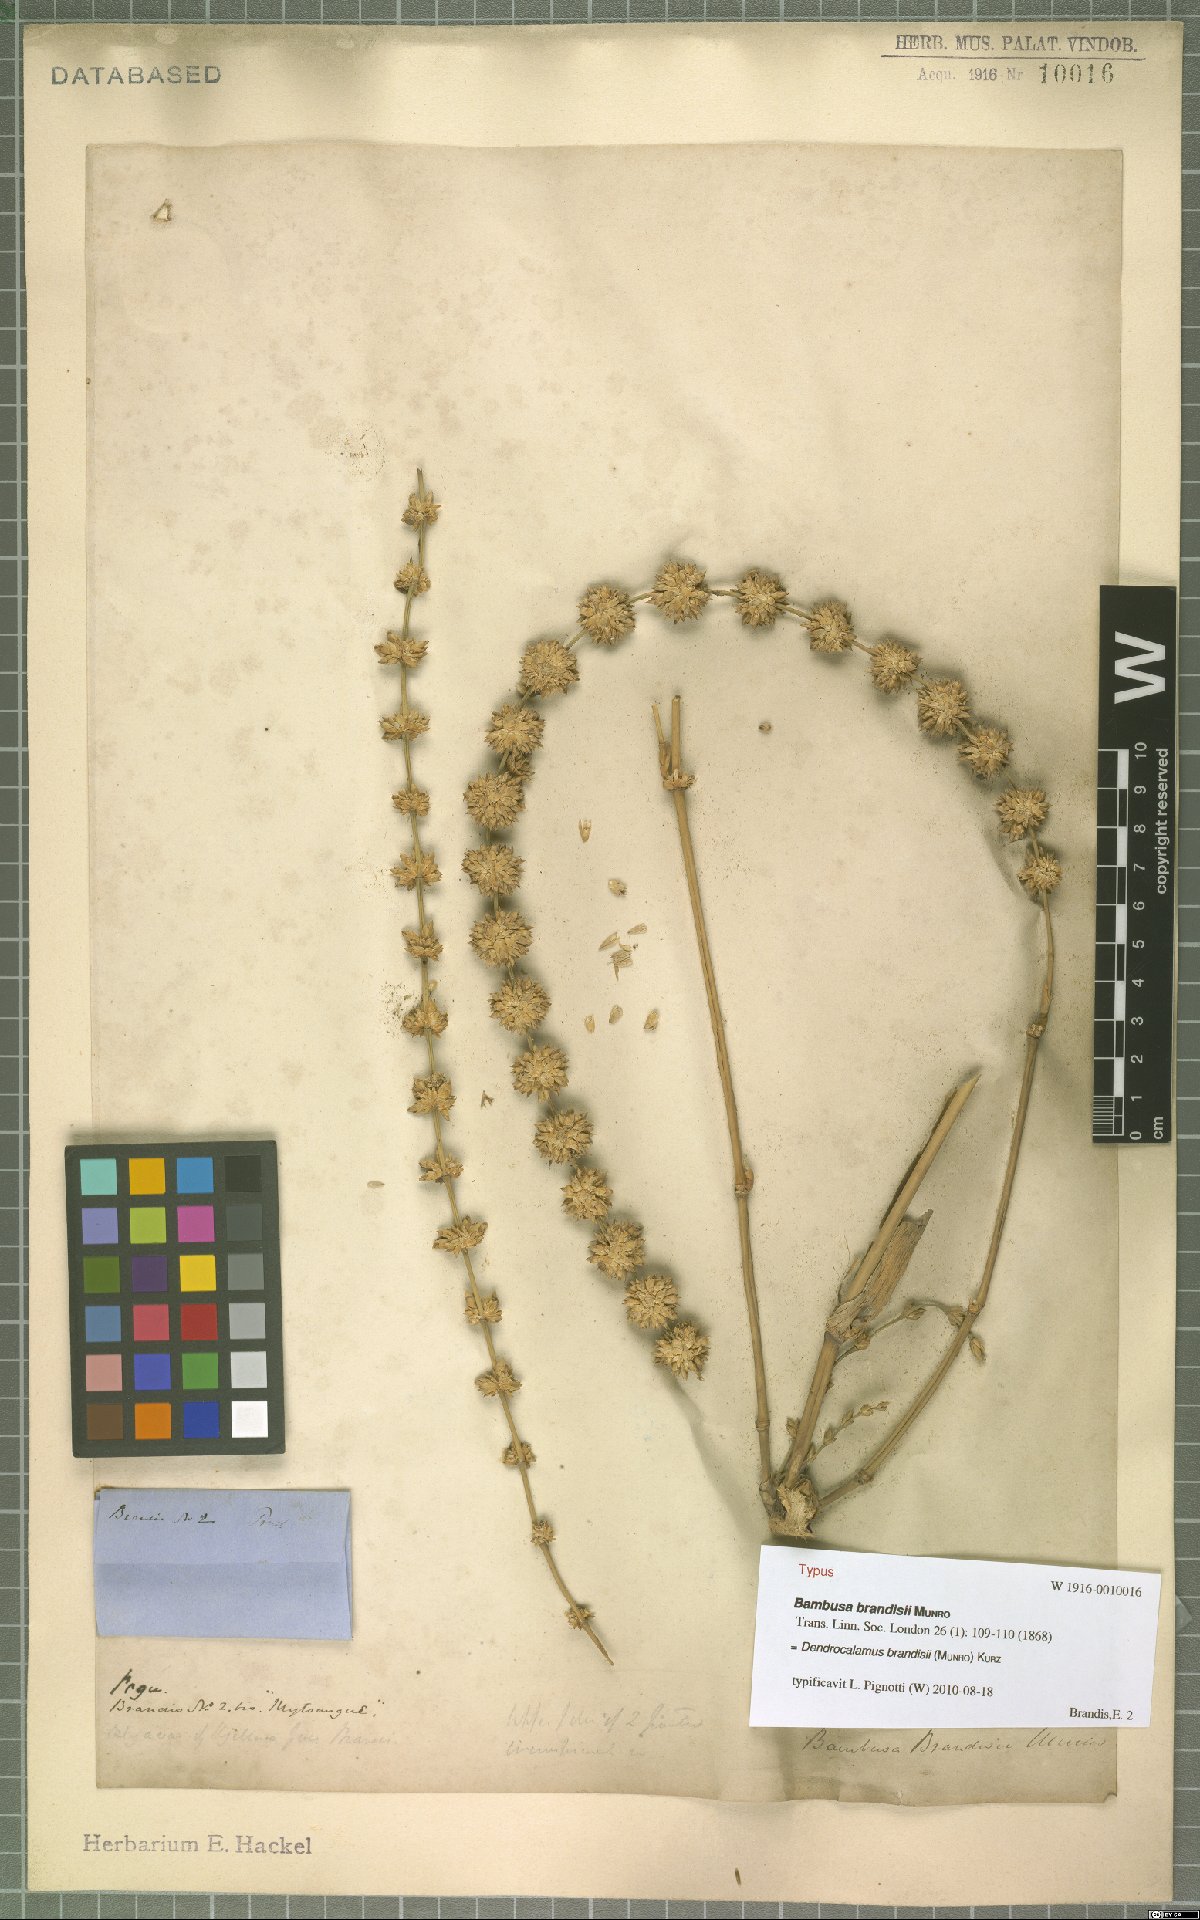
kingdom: Plantae
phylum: Tracheophyta
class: Liliopsida
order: Poales
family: Poaceae
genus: Dendrocalamus
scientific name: Dendrocalamus brandisii
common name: Velvetleaf bamboo
